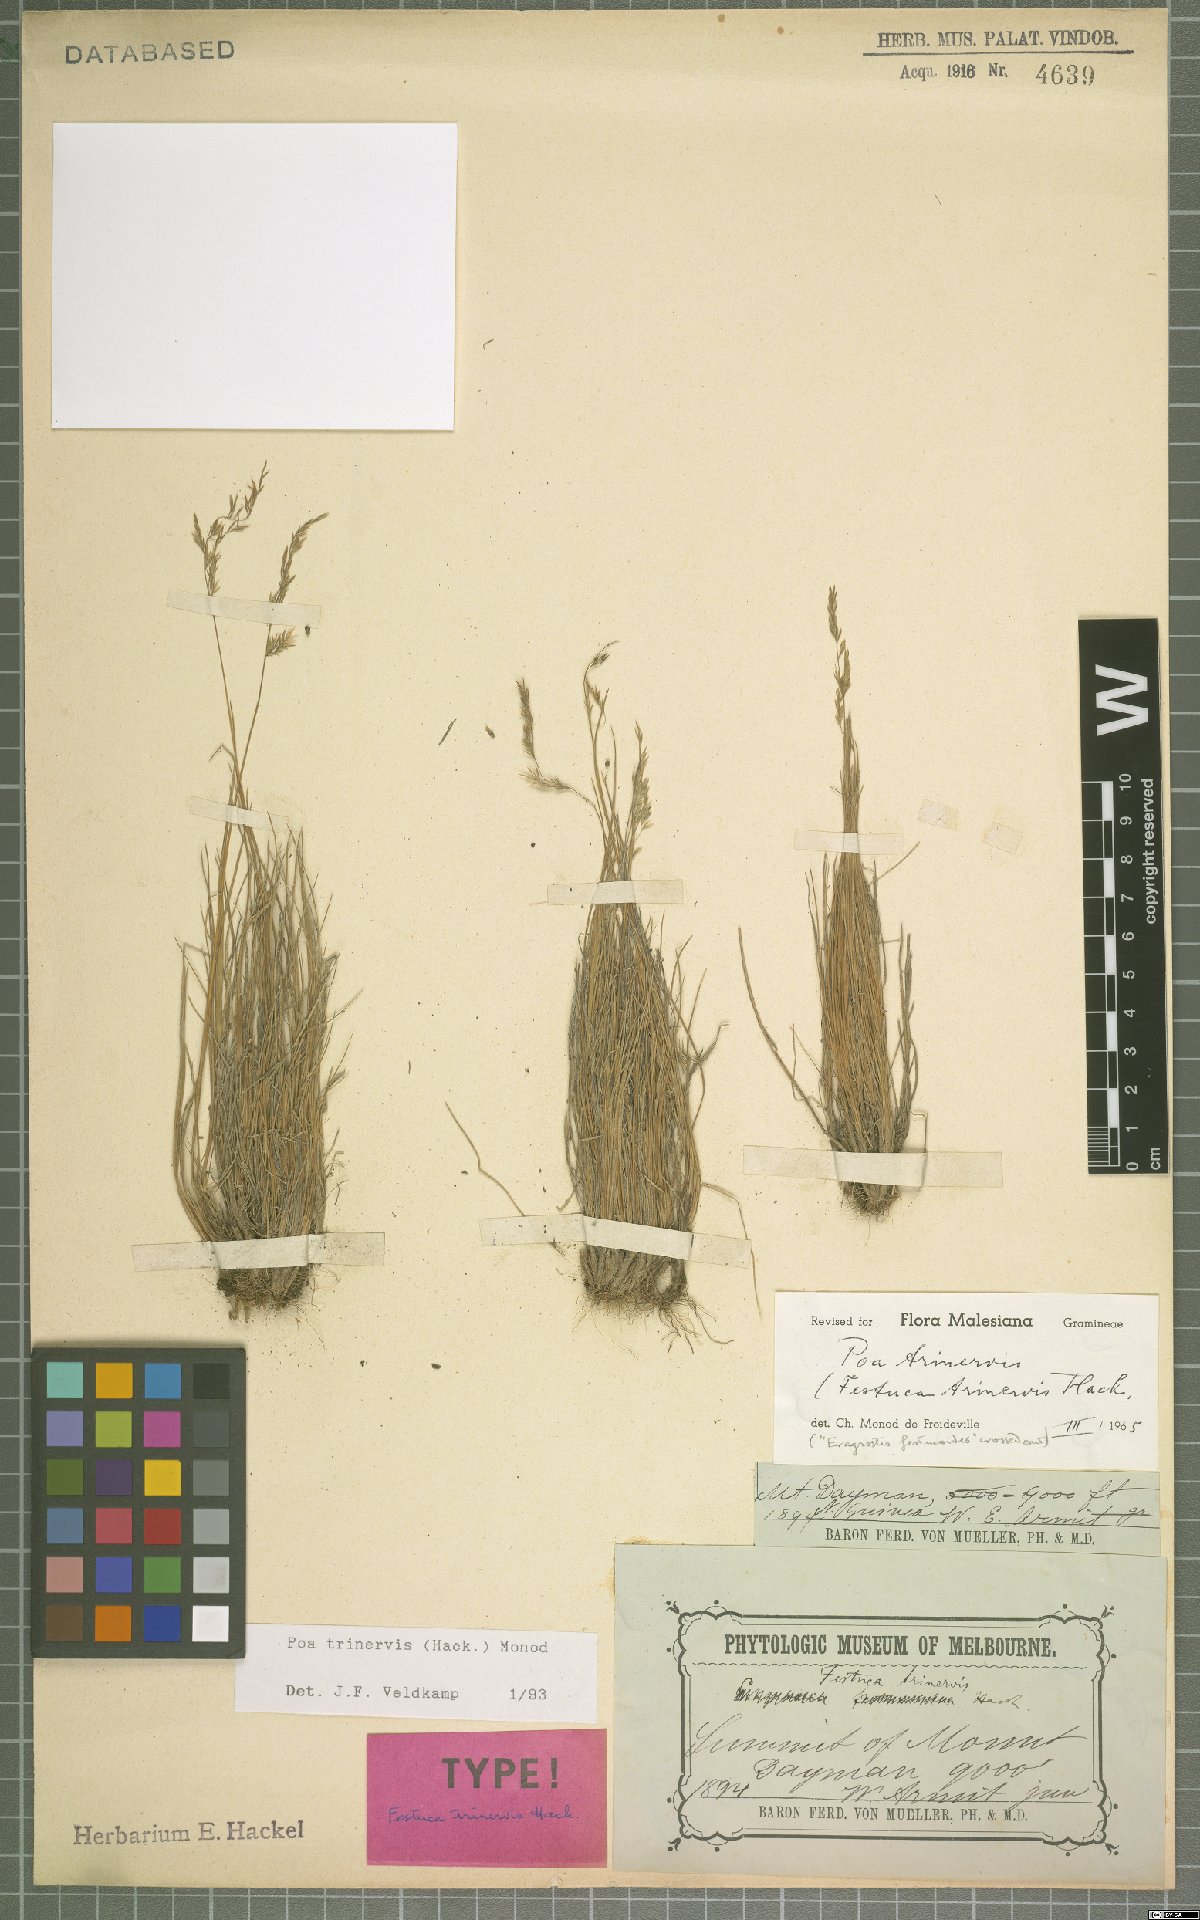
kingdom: Plantae
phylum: Tracheophyta
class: Liliopsida
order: Poales
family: Poaceae
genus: Poa
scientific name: Poa trinervis
